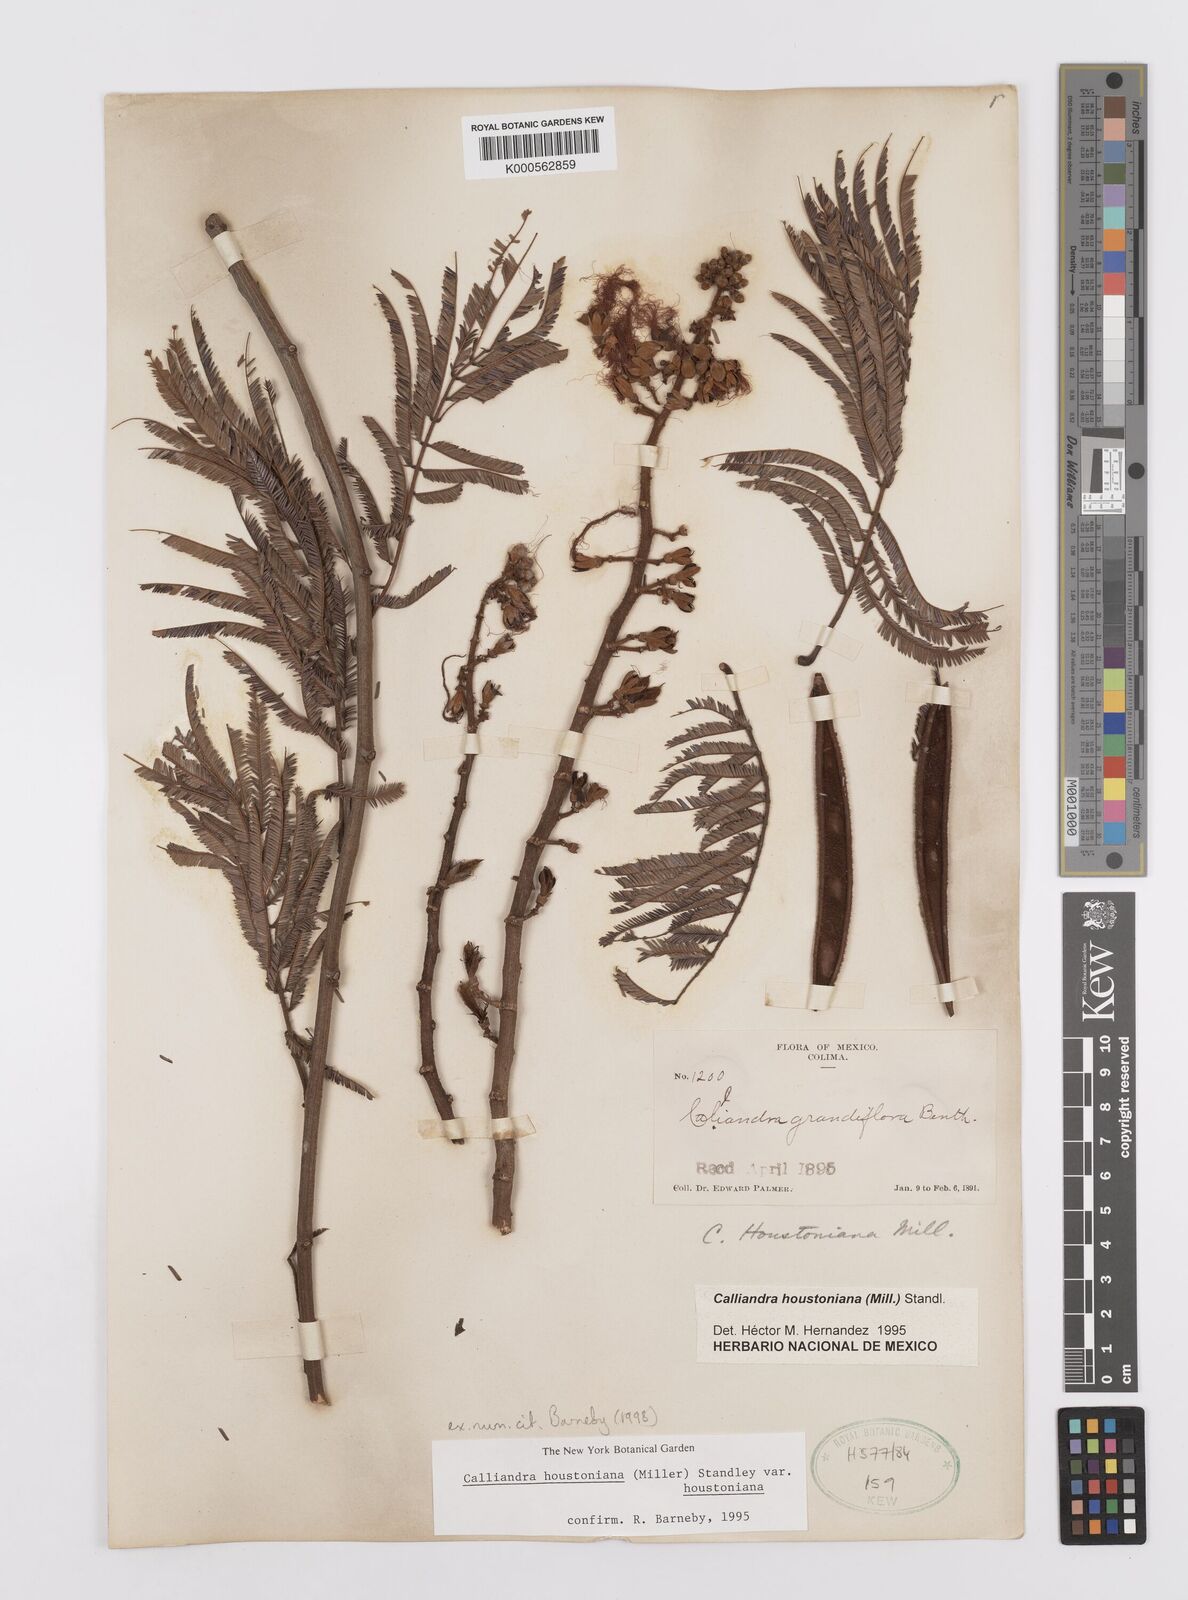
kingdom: Plantae
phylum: Tracheophyta
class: Magnoliopsida
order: Fabales
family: Fabaceae
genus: Calliandra
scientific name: Calliandra houstoniana
